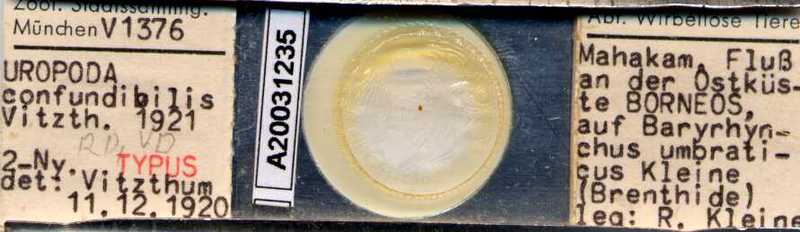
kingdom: Animalia
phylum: Arthropoda
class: Arachnida
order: Mesostigmata
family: Trematuridae
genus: Trichouropoda
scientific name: Trichouropoda
